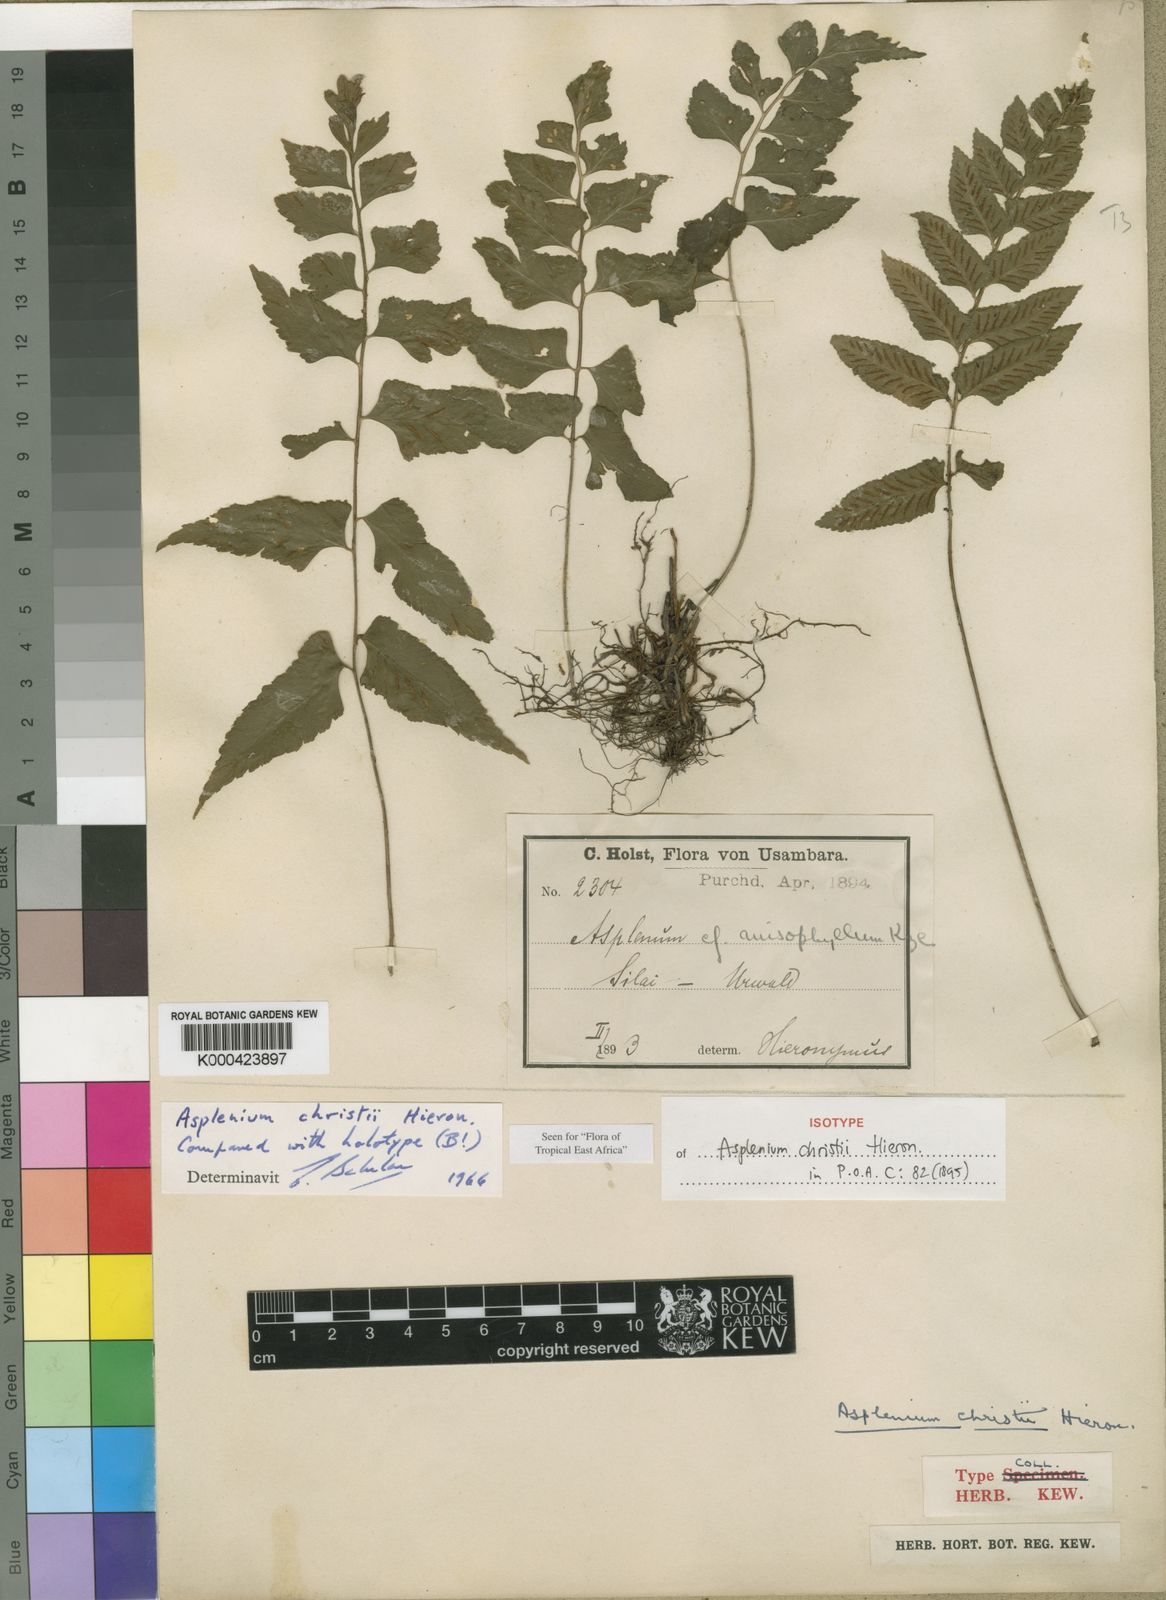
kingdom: Plantae
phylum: Tracheophyta
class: Polypodiopsida
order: Polypodiales
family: Aspleniaceae
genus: Asplenium
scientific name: Asplenium christii
